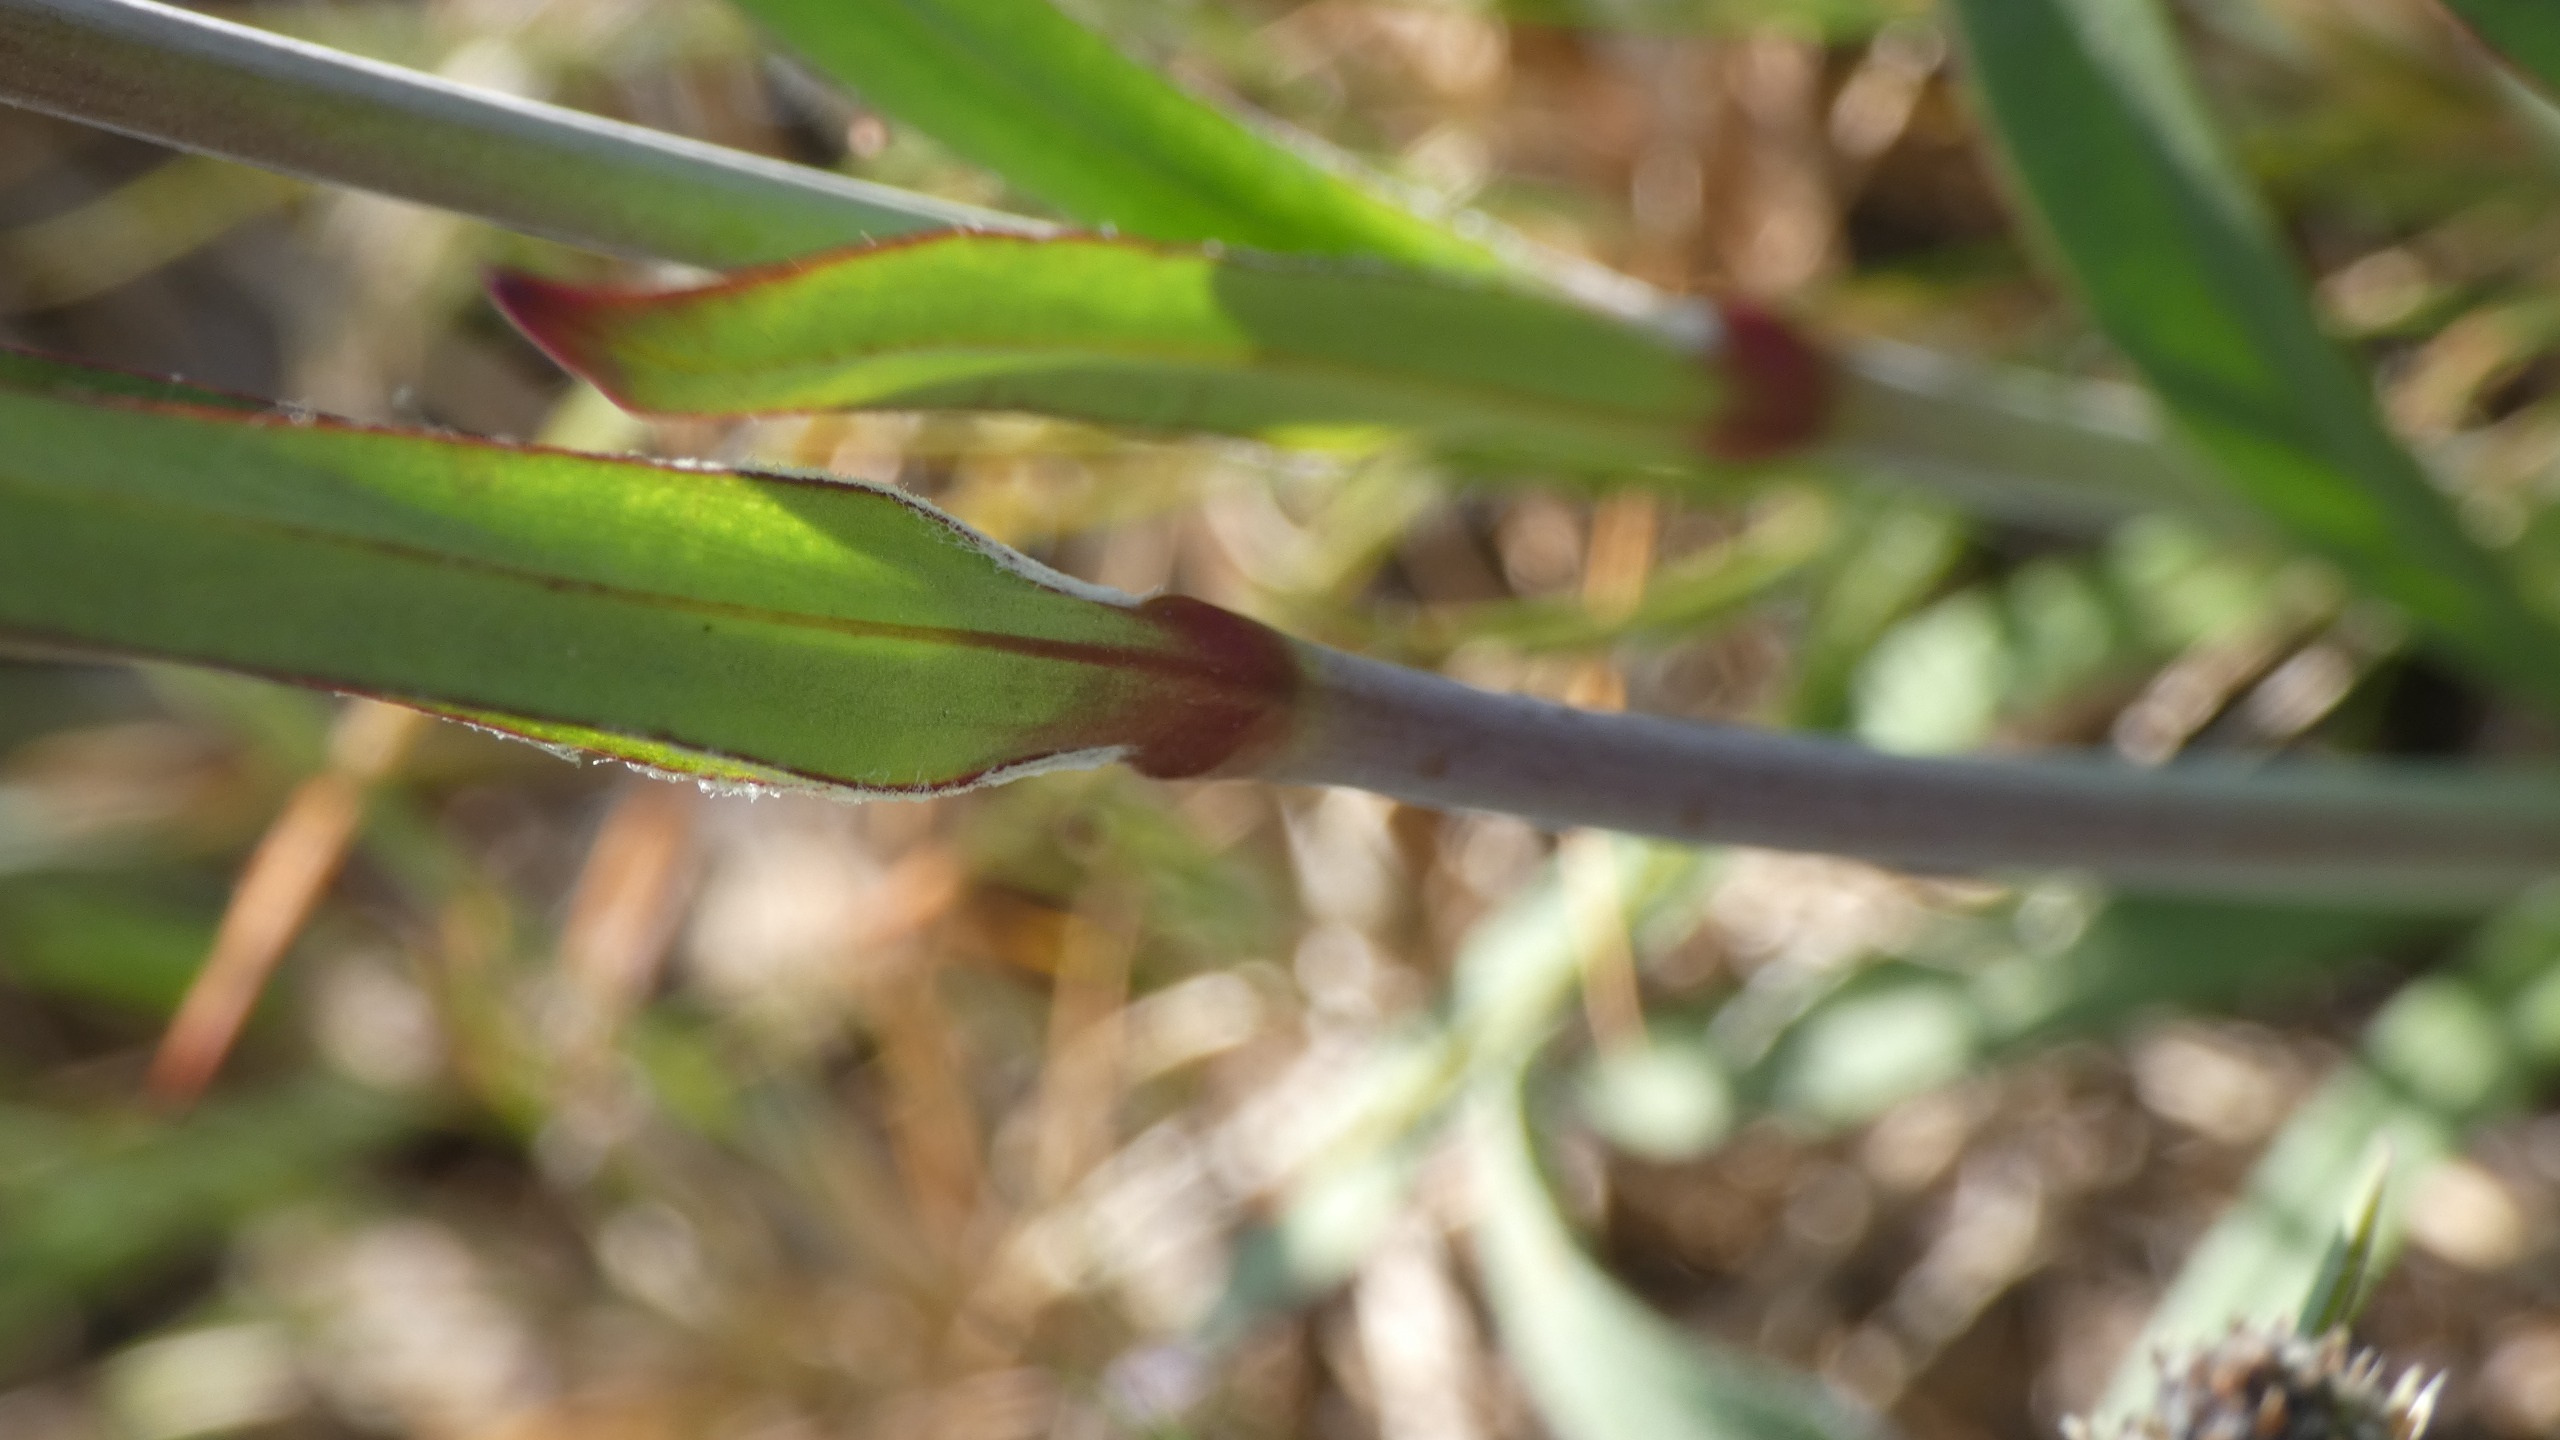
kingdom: Plantae
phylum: Tracheophyta
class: Magnoliopsida
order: Caryophyllales
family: Caryophyllaceae
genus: Viscaria
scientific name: Viscaria vulgaris
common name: Tjærenellike
